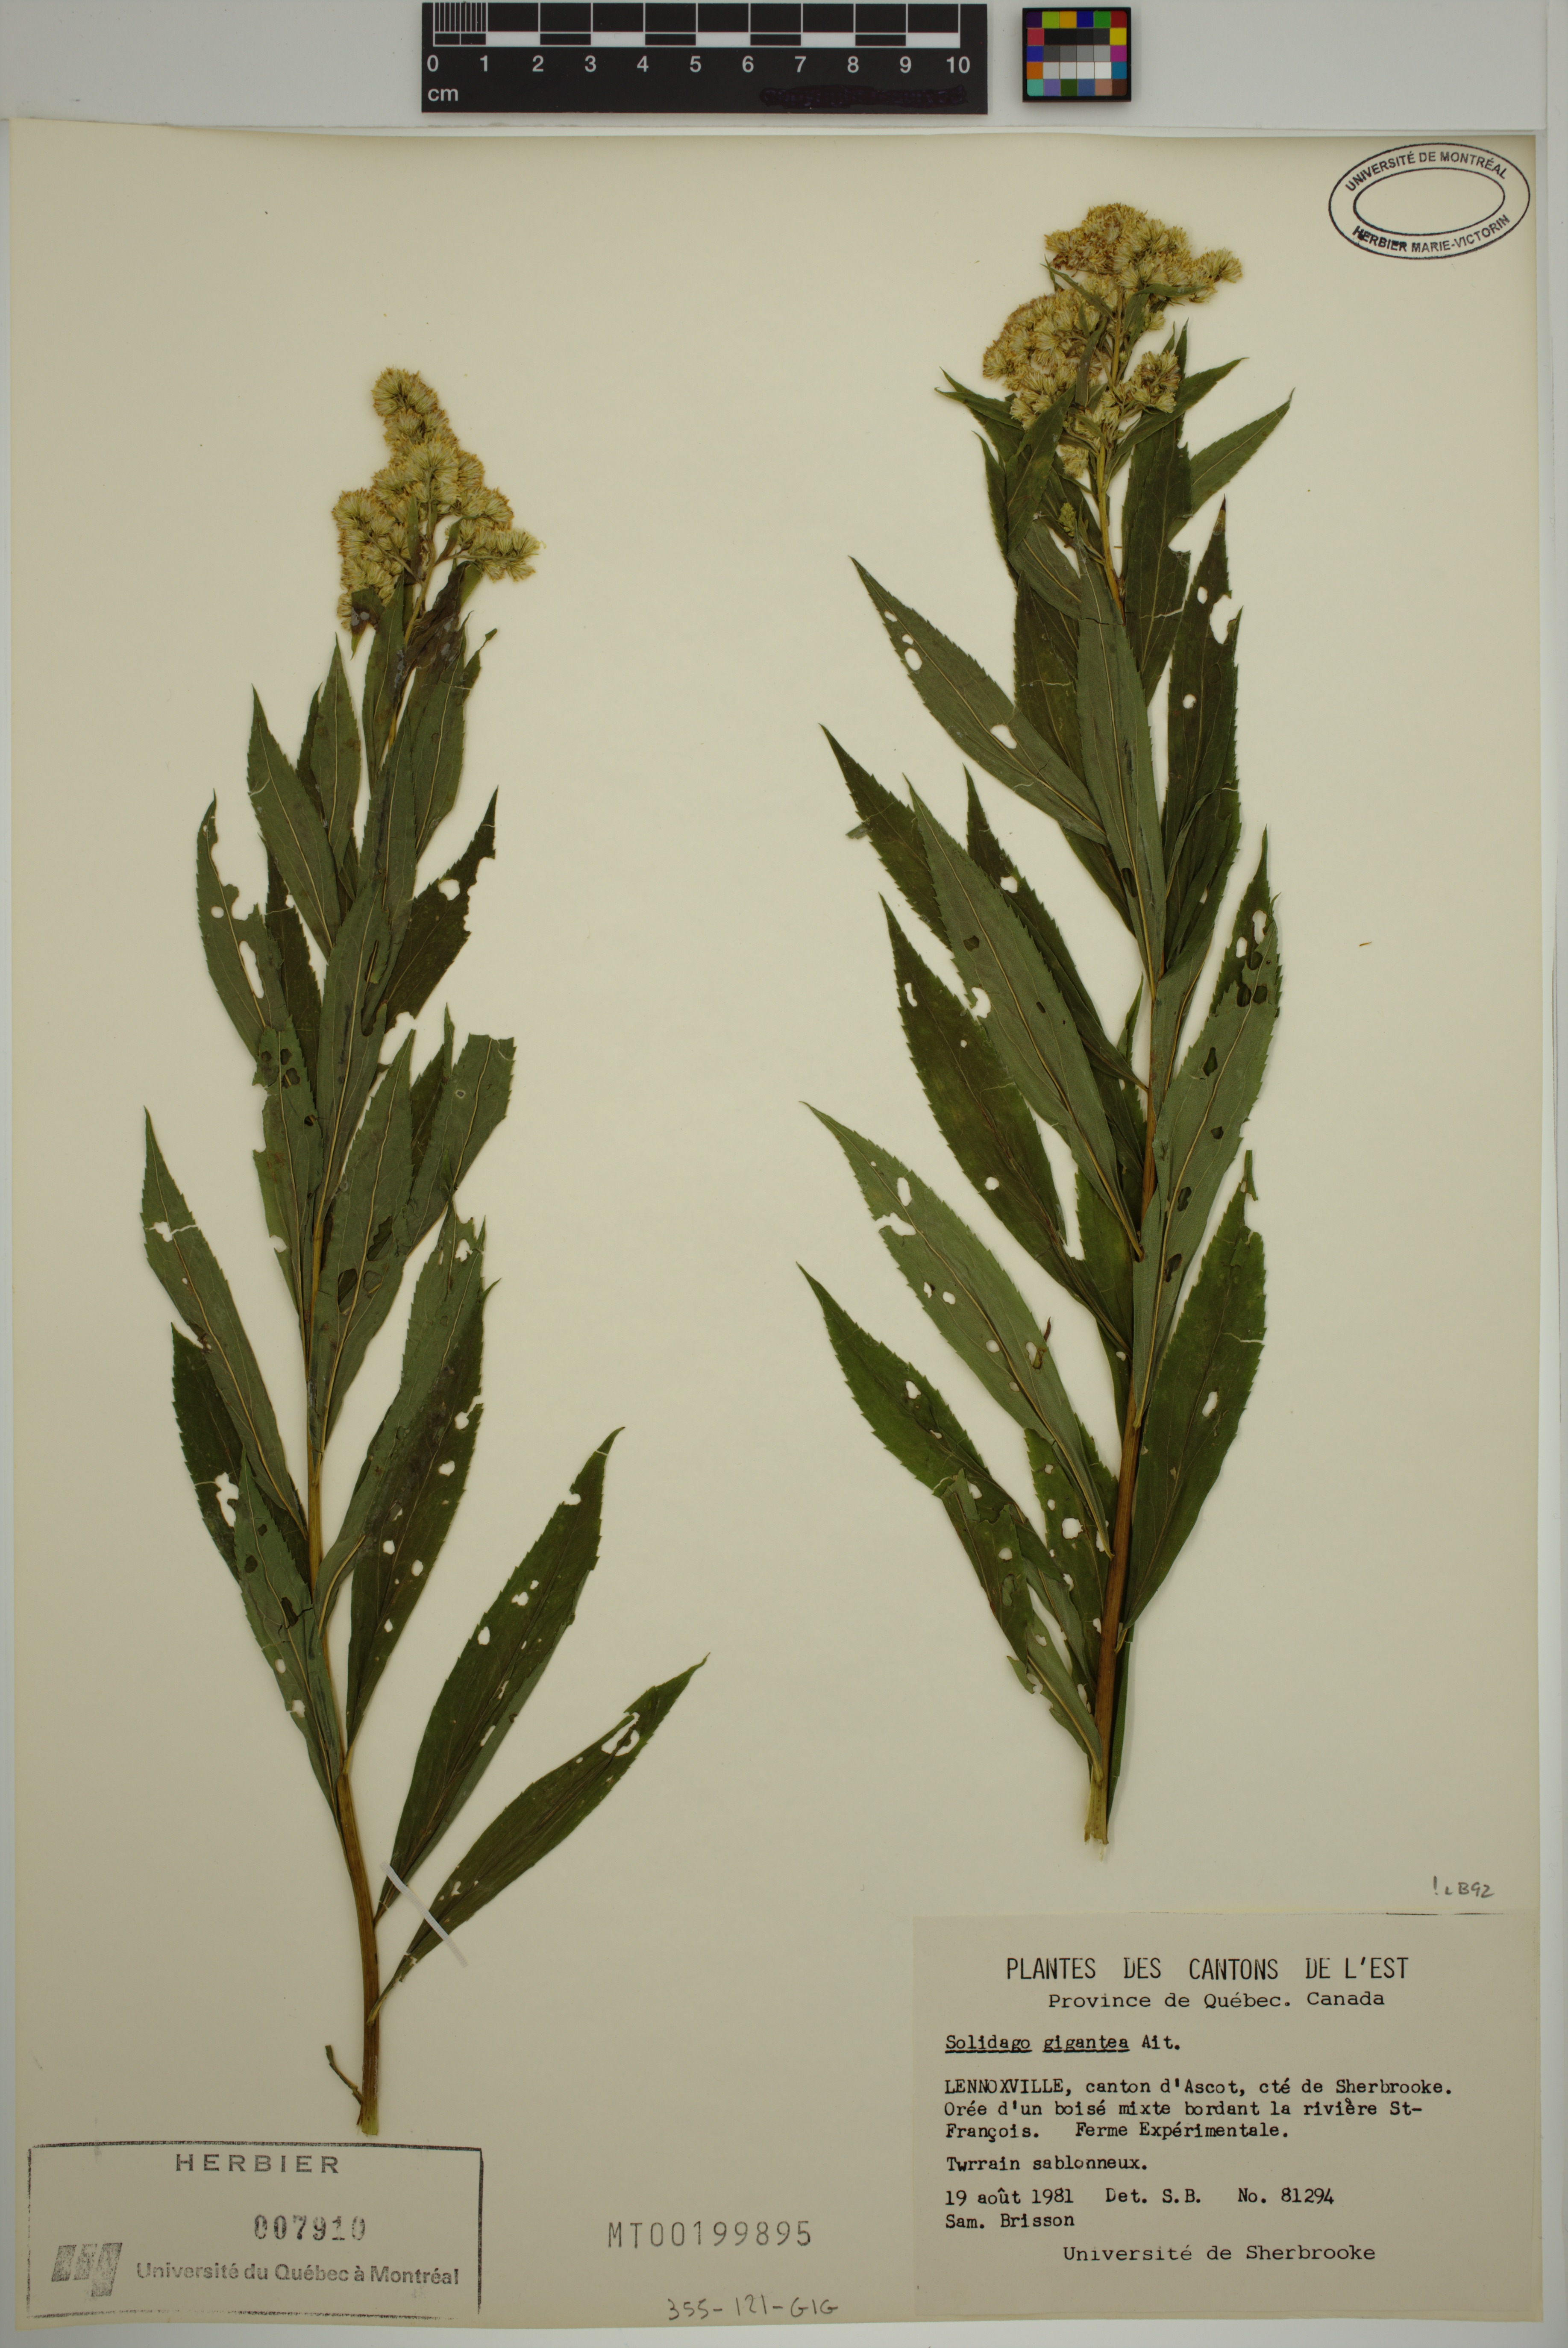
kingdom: Plantae
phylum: Tracheophyta
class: Magnoliopsida
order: Asterales
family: Asteraceae
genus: Solidago
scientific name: Solidago gigantea
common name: Giant goldenrod
